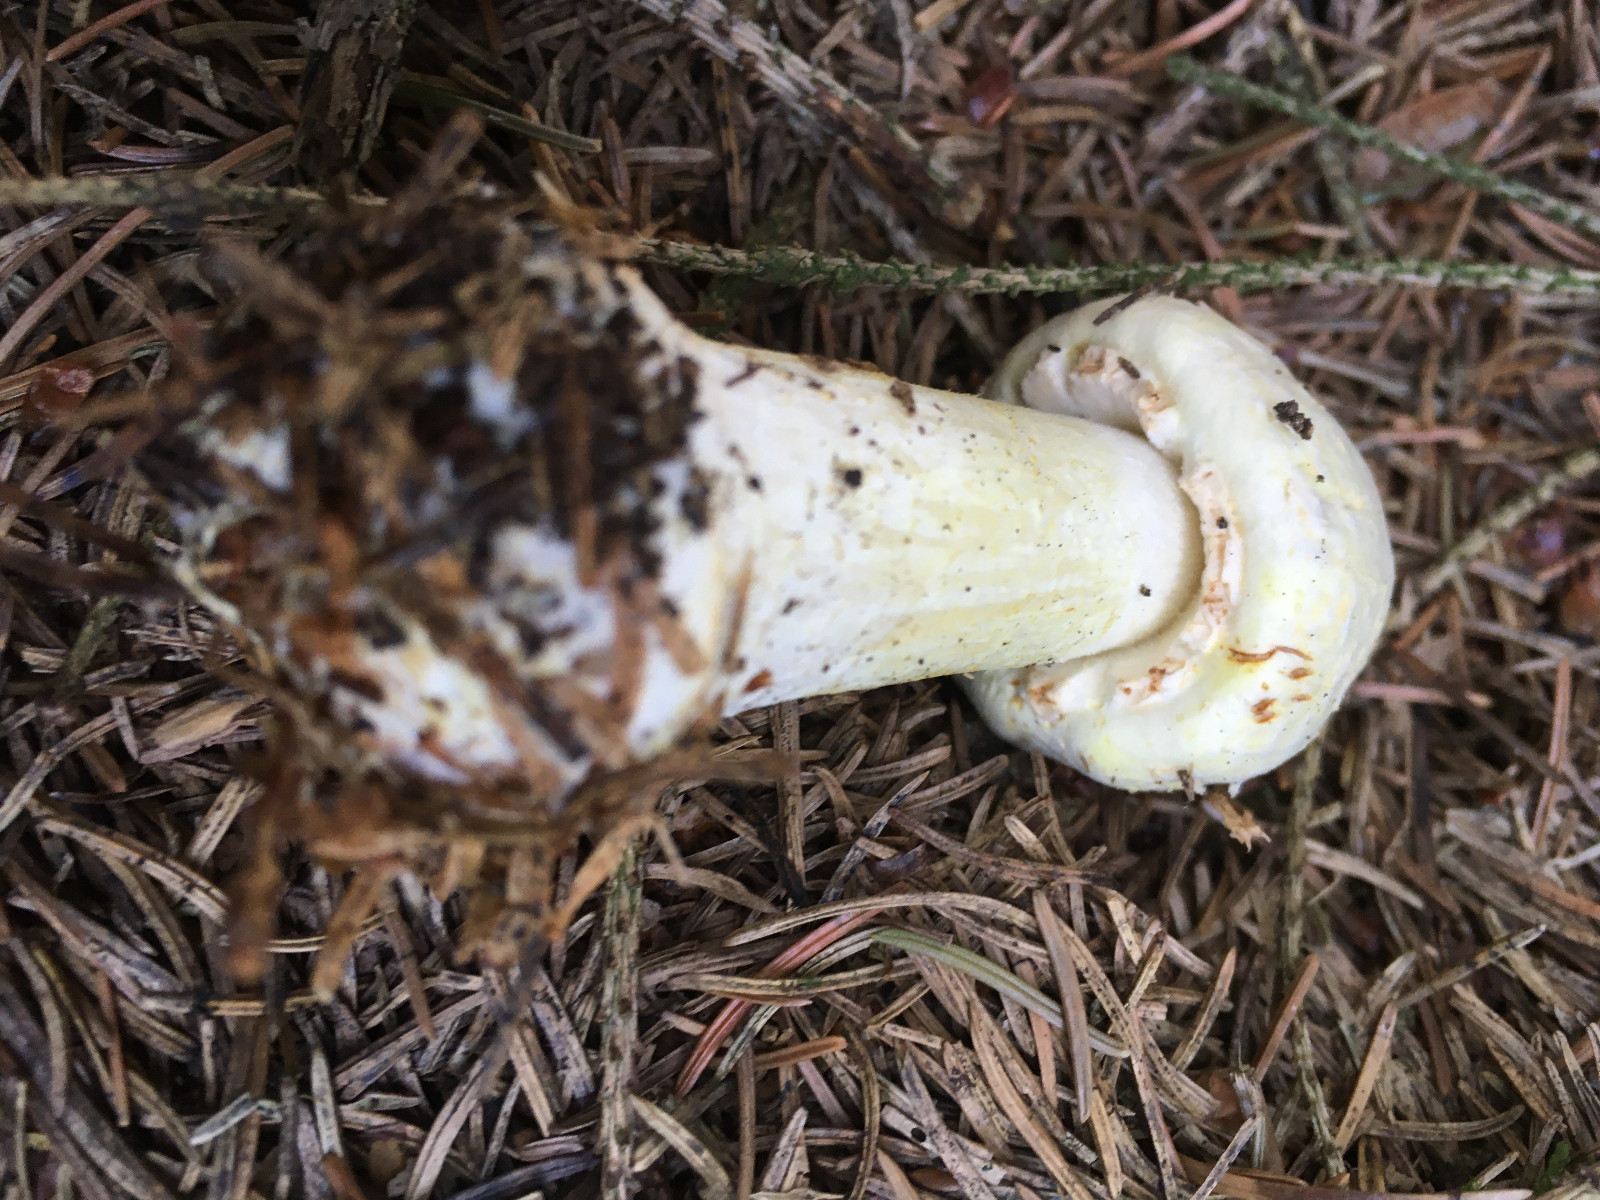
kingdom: Fungi
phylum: Basidiomycota
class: Agaricomycetes
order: Agaricales
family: Agaricaceae
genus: Agaricus
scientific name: Agaricus sylvicola
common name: skiveknoldet champignon
